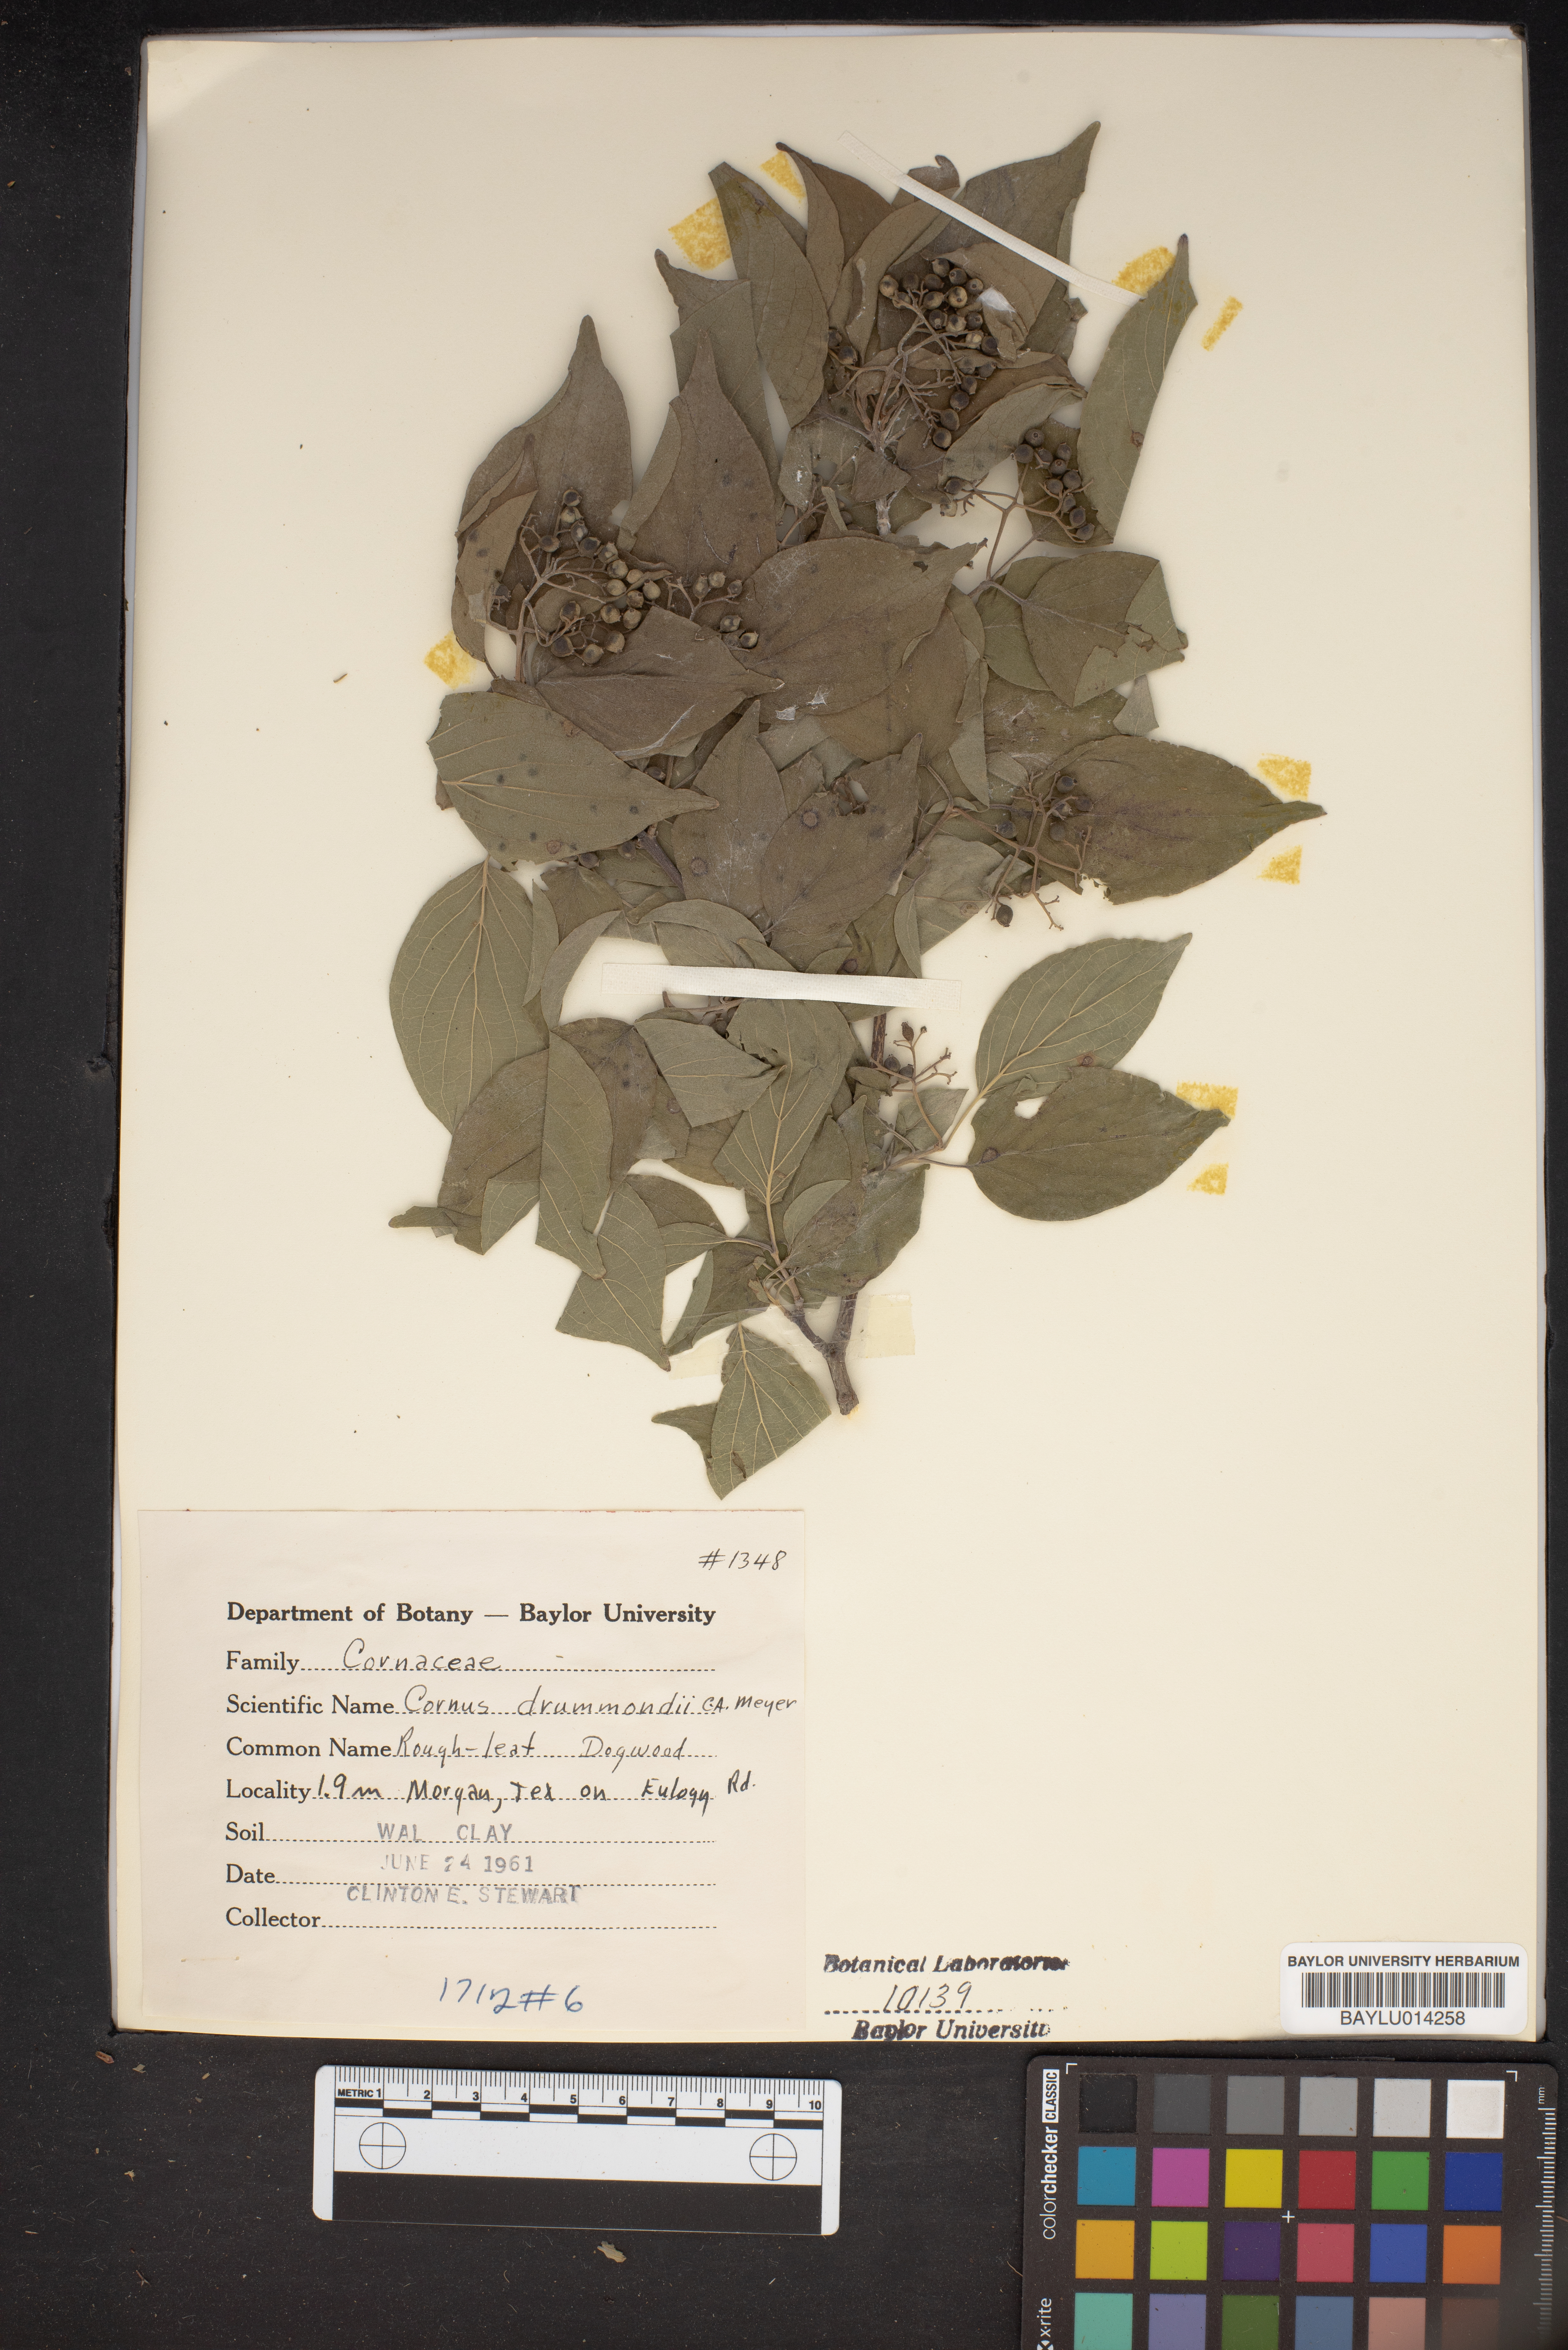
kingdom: Plantae
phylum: Tracheophyta
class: Magnoliopsida
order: Cornales
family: Cornaceae
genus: Cornus
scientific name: Cornus drummondii
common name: Rough-leaf dogwood
